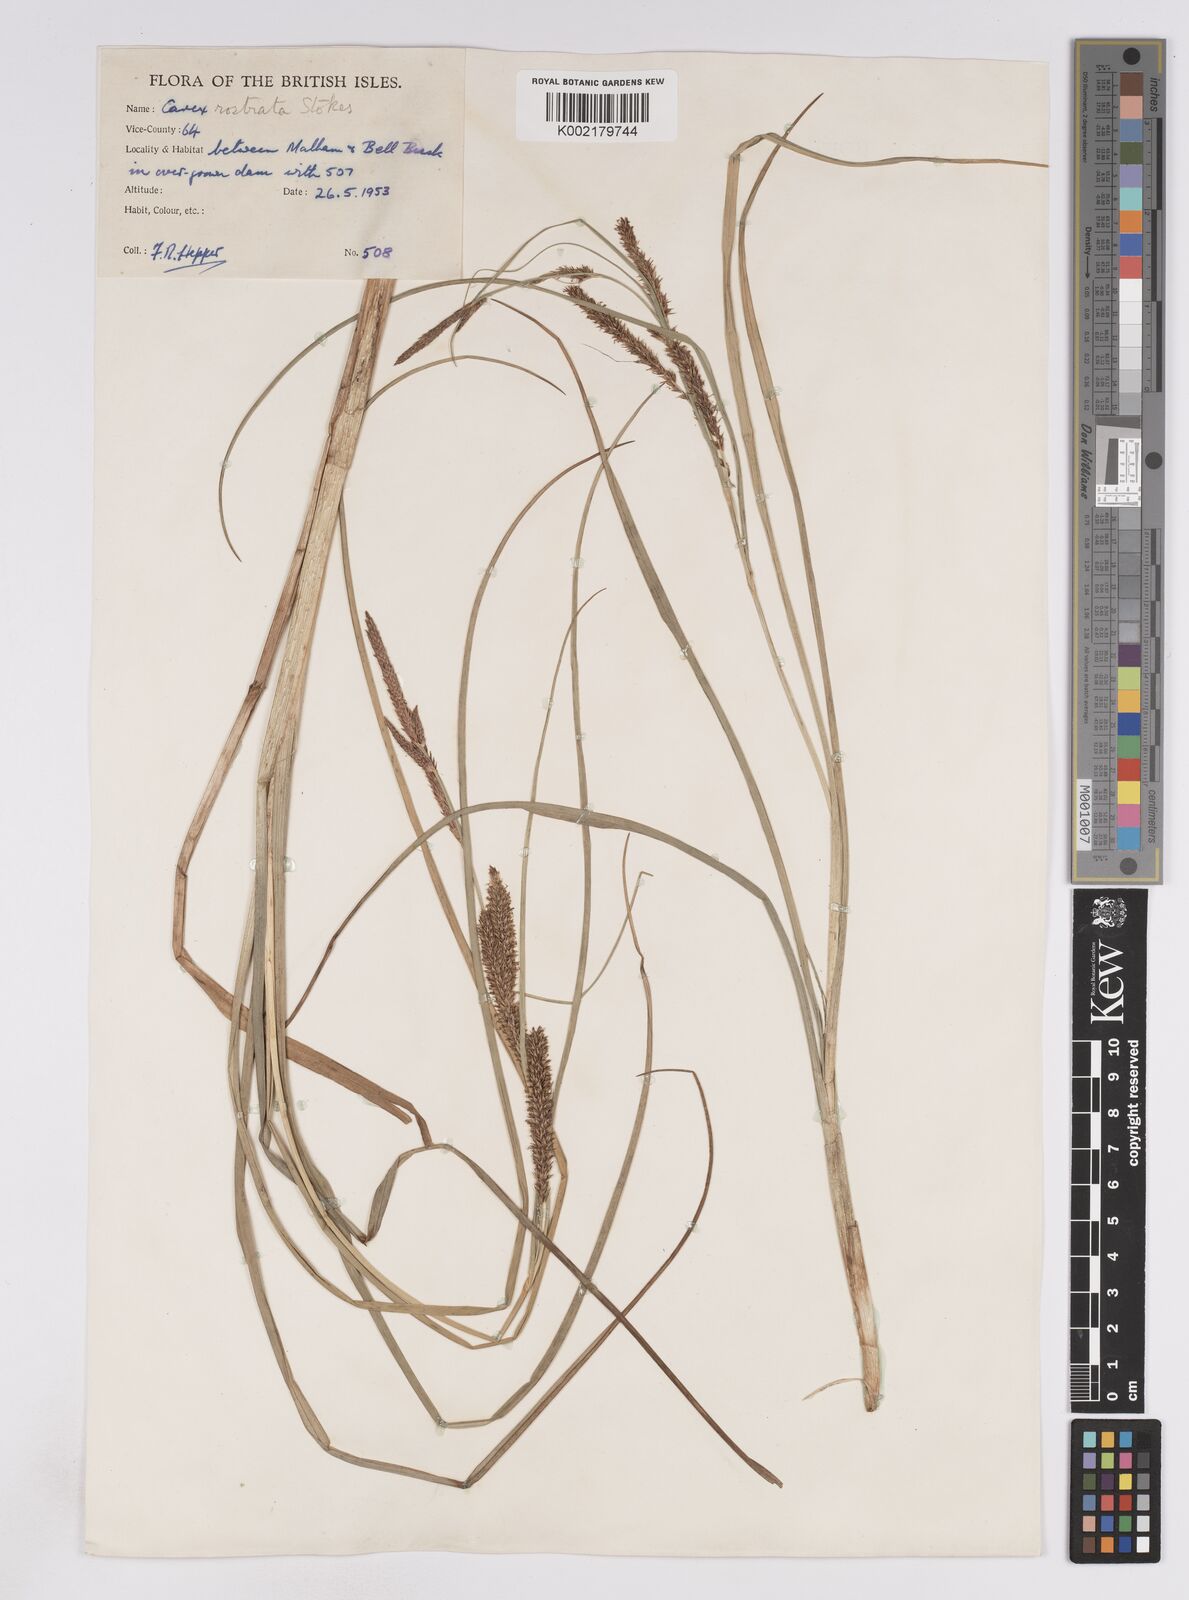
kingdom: Plantae
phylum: Tracheophyta
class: Liliopsida
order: Poales
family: Cyperaceae
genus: Carex
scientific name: Carex rostrata
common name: Bottle sedge
